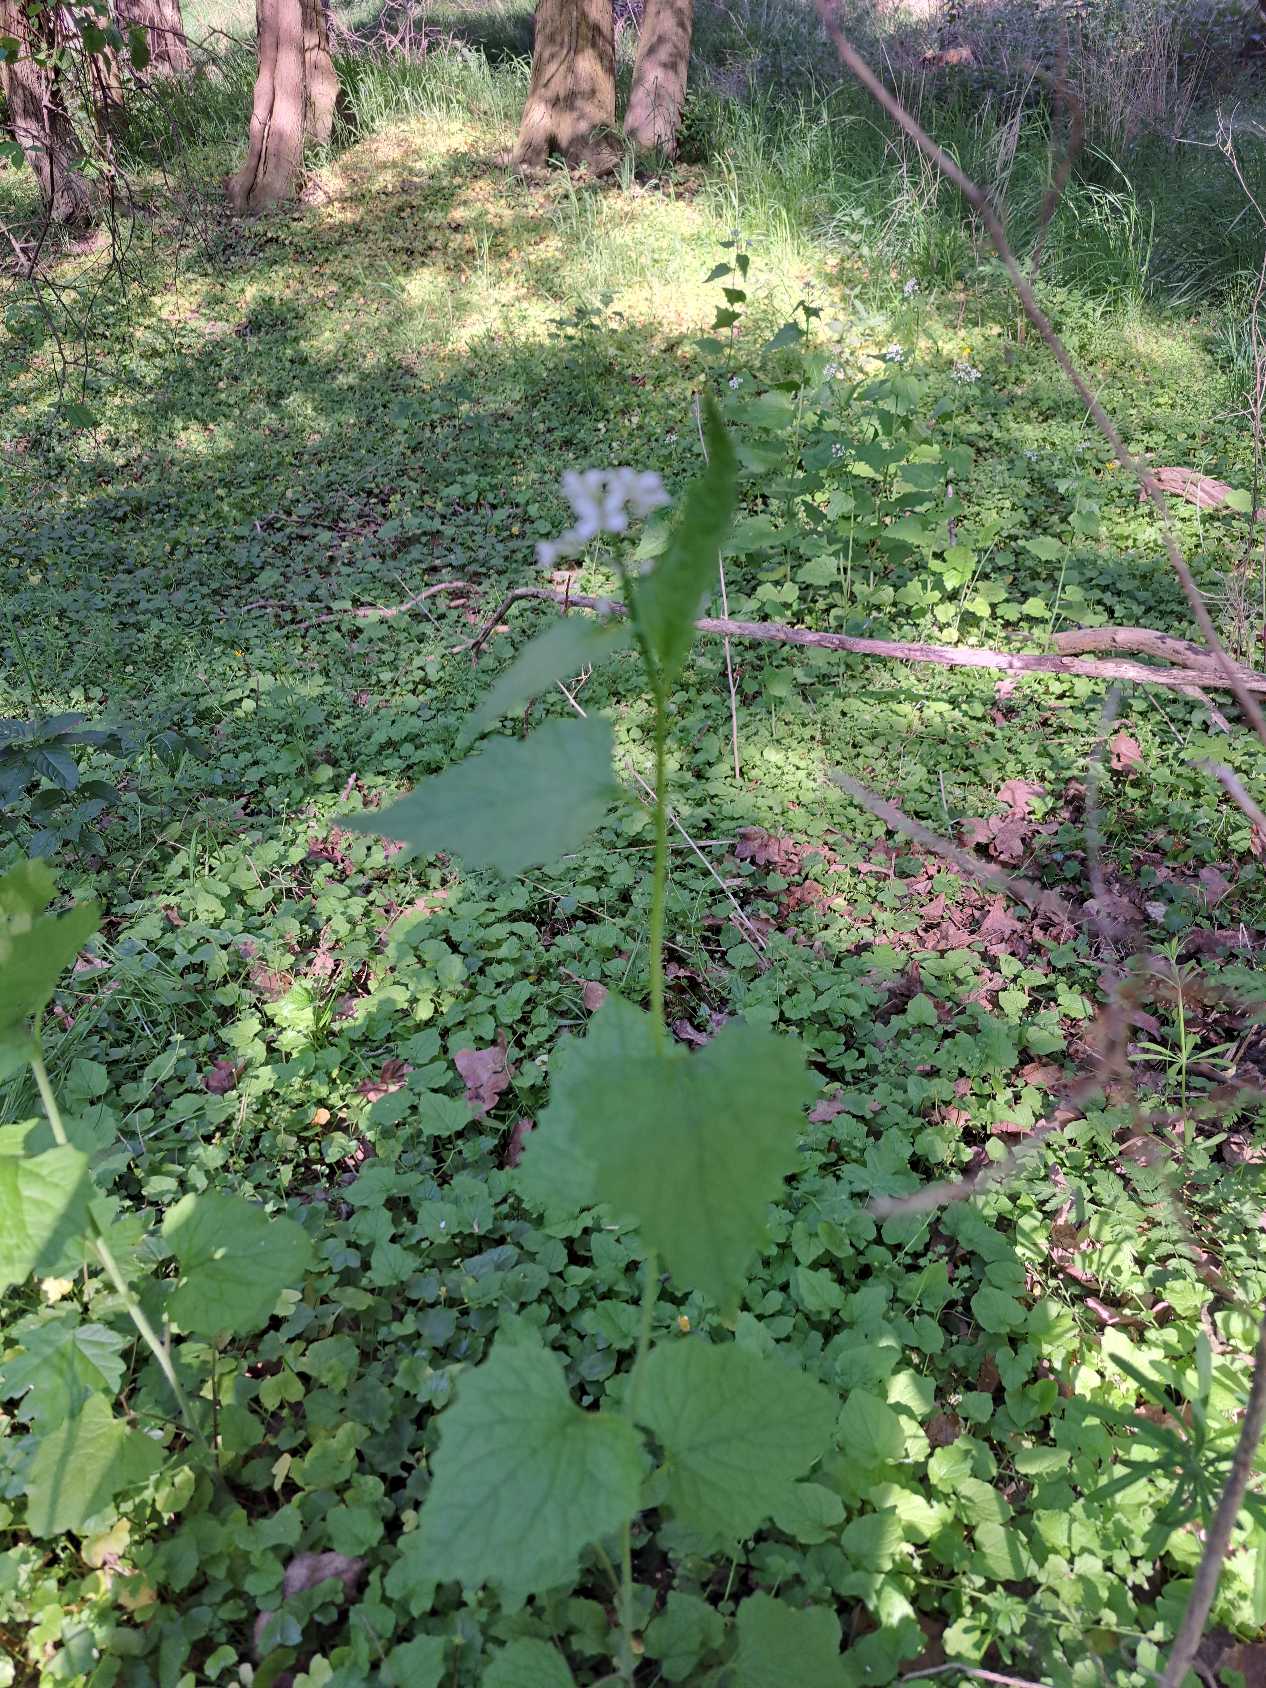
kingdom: Plantae
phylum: Tracheophyta
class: Magnoliopsida
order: Brassicales
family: Brassicaceae
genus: Alliaria
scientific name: Alliaria petiolata
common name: Løgkarse
